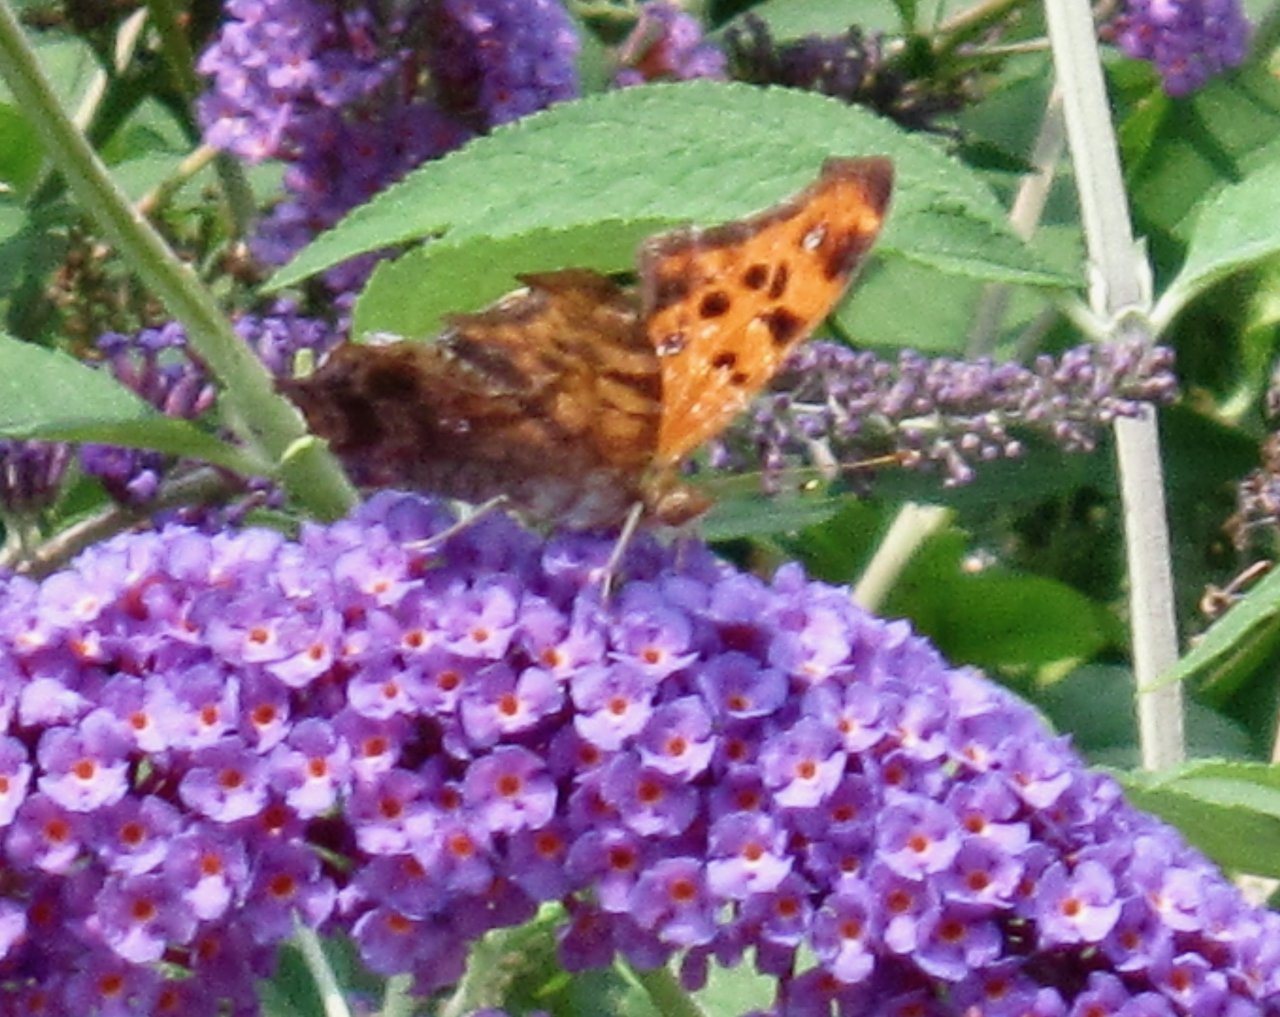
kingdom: Animalia
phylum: Arthropoda
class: Insecta
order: Lepidoptera
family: Nymphalidae
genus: Polygonia
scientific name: Polygonia interrogationis
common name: Question Mark
